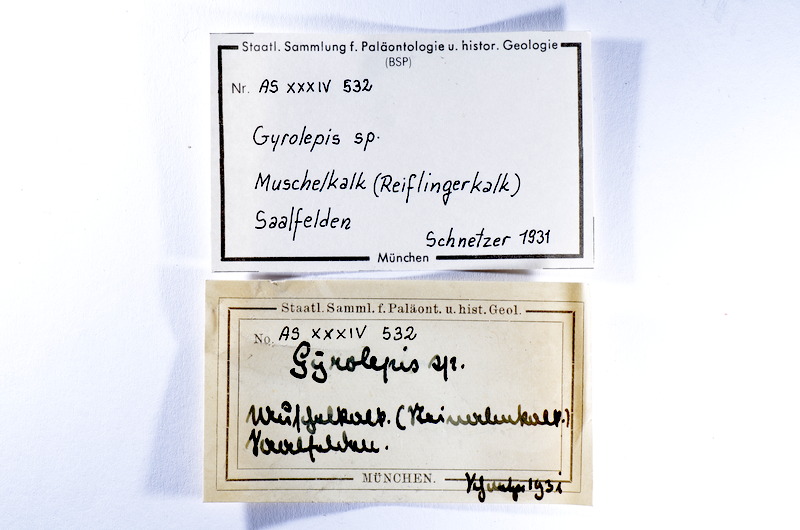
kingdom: Animalia
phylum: Chordata
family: Palaeoniscidae
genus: Gyrolepis
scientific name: Gyrolepis
